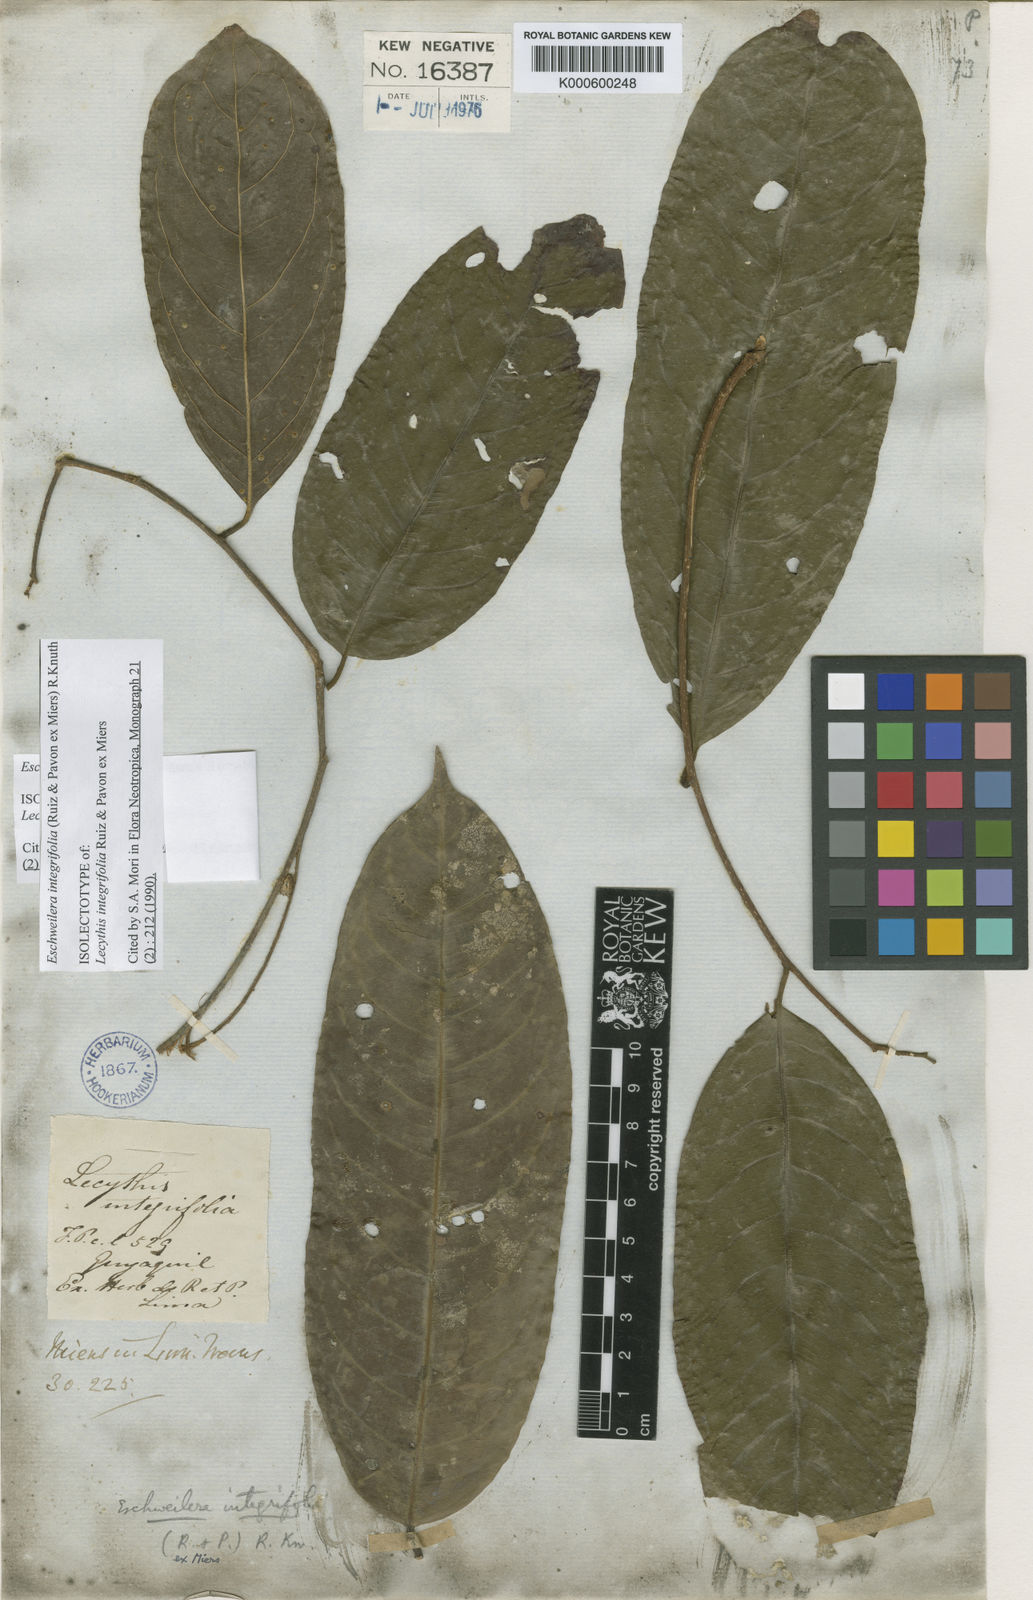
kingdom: Plantae
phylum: Tracheophyta
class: Magnoliopsida
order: Ericales
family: Lecythidaceae
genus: Eschweilera
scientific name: Eschweilera integrifolia
